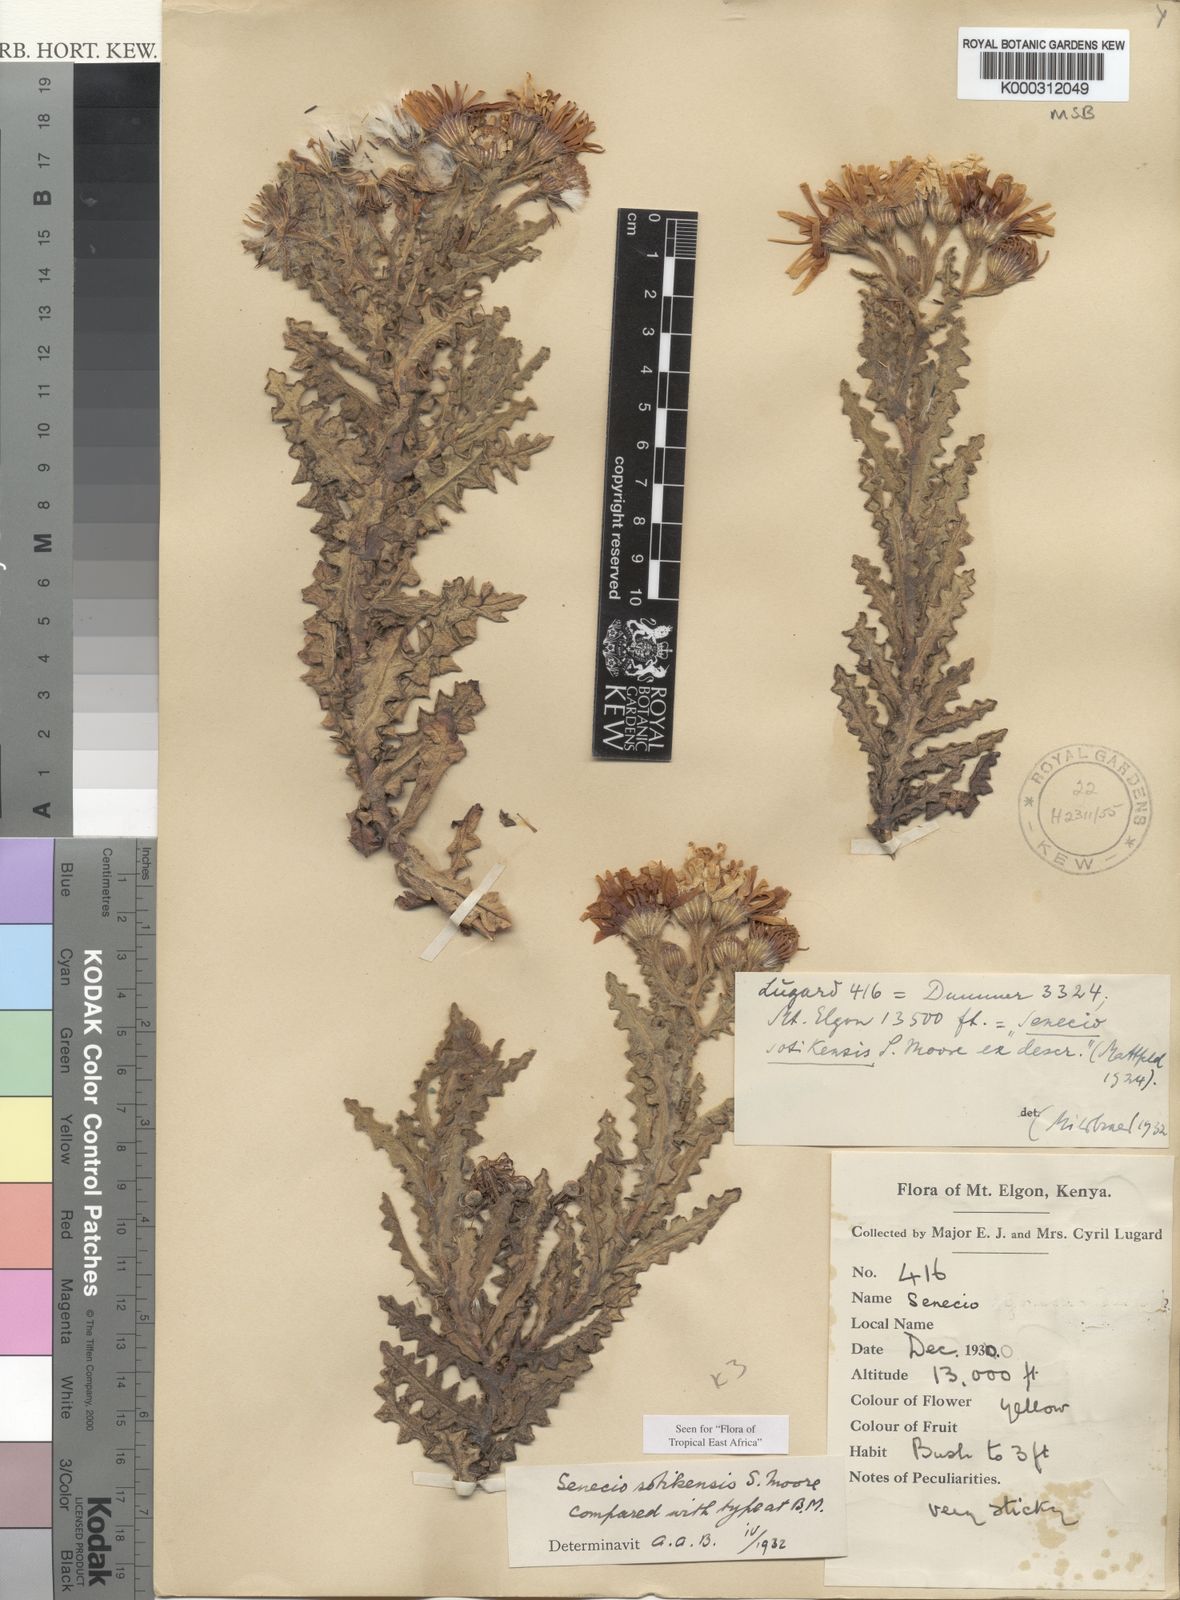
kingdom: Plantae
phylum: Tracheophyta
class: Magnoliopsida
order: Asterales
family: Asteraceae
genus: Senecio
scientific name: Senecio sotikensis
